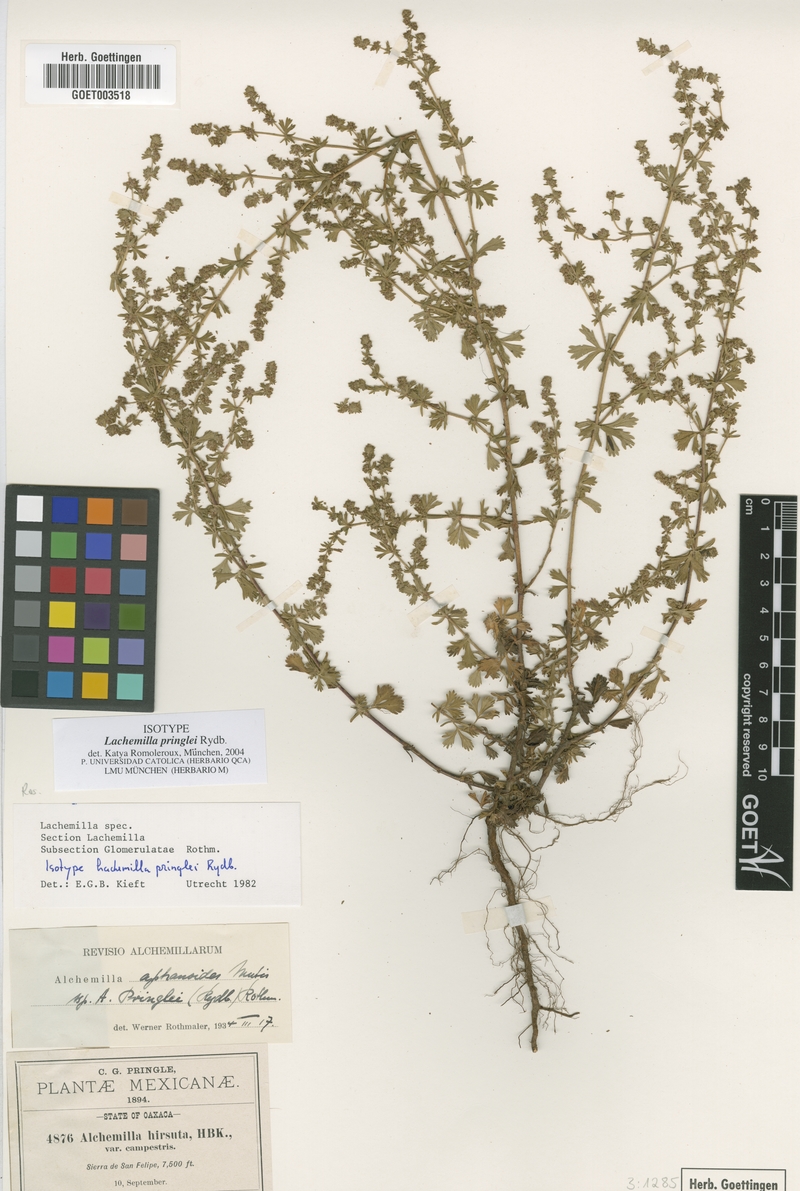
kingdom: Plantae
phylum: Tracheophyta
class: Magnoliopsida
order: Rosales
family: Rosaceae
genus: Lachemilla
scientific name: Lachemilla sibbaldiifolia
